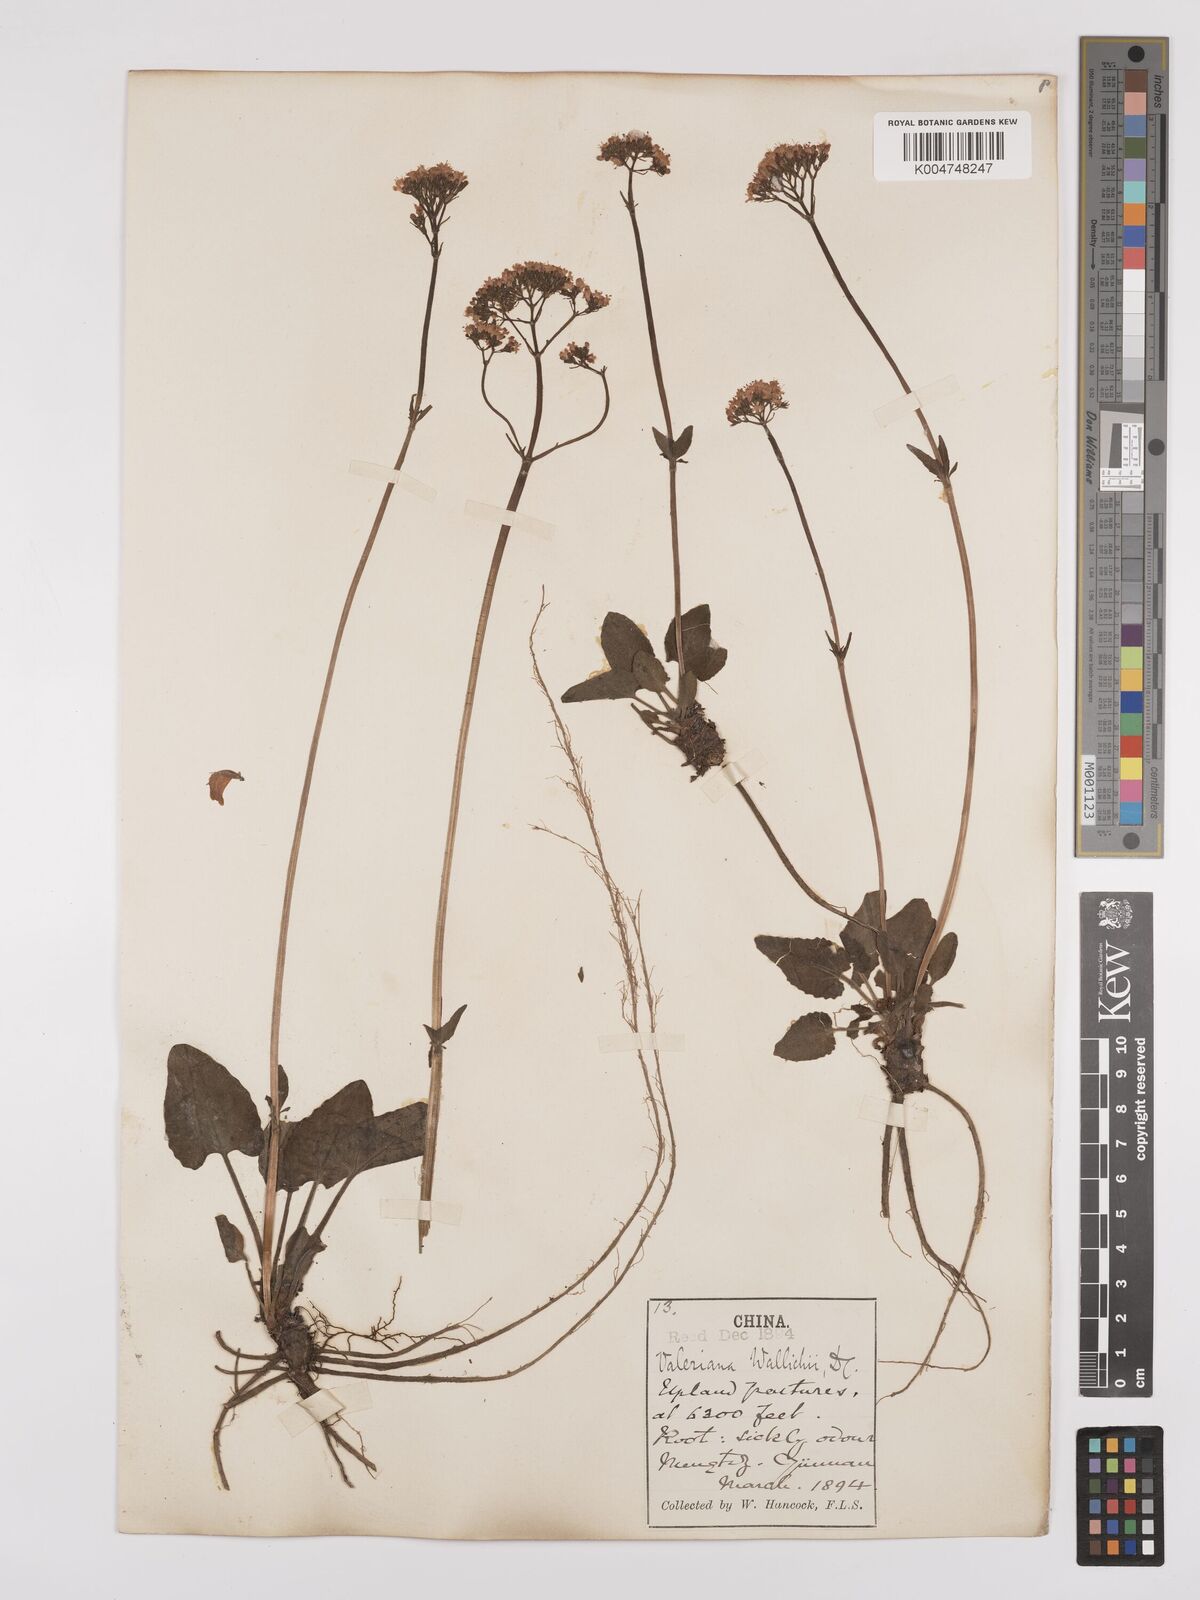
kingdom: Plantae
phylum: Tracheophyta
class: Magnoliopsida
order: Dipsacales
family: Caprifoliaceae
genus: Valeriana
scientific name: Valeriana
